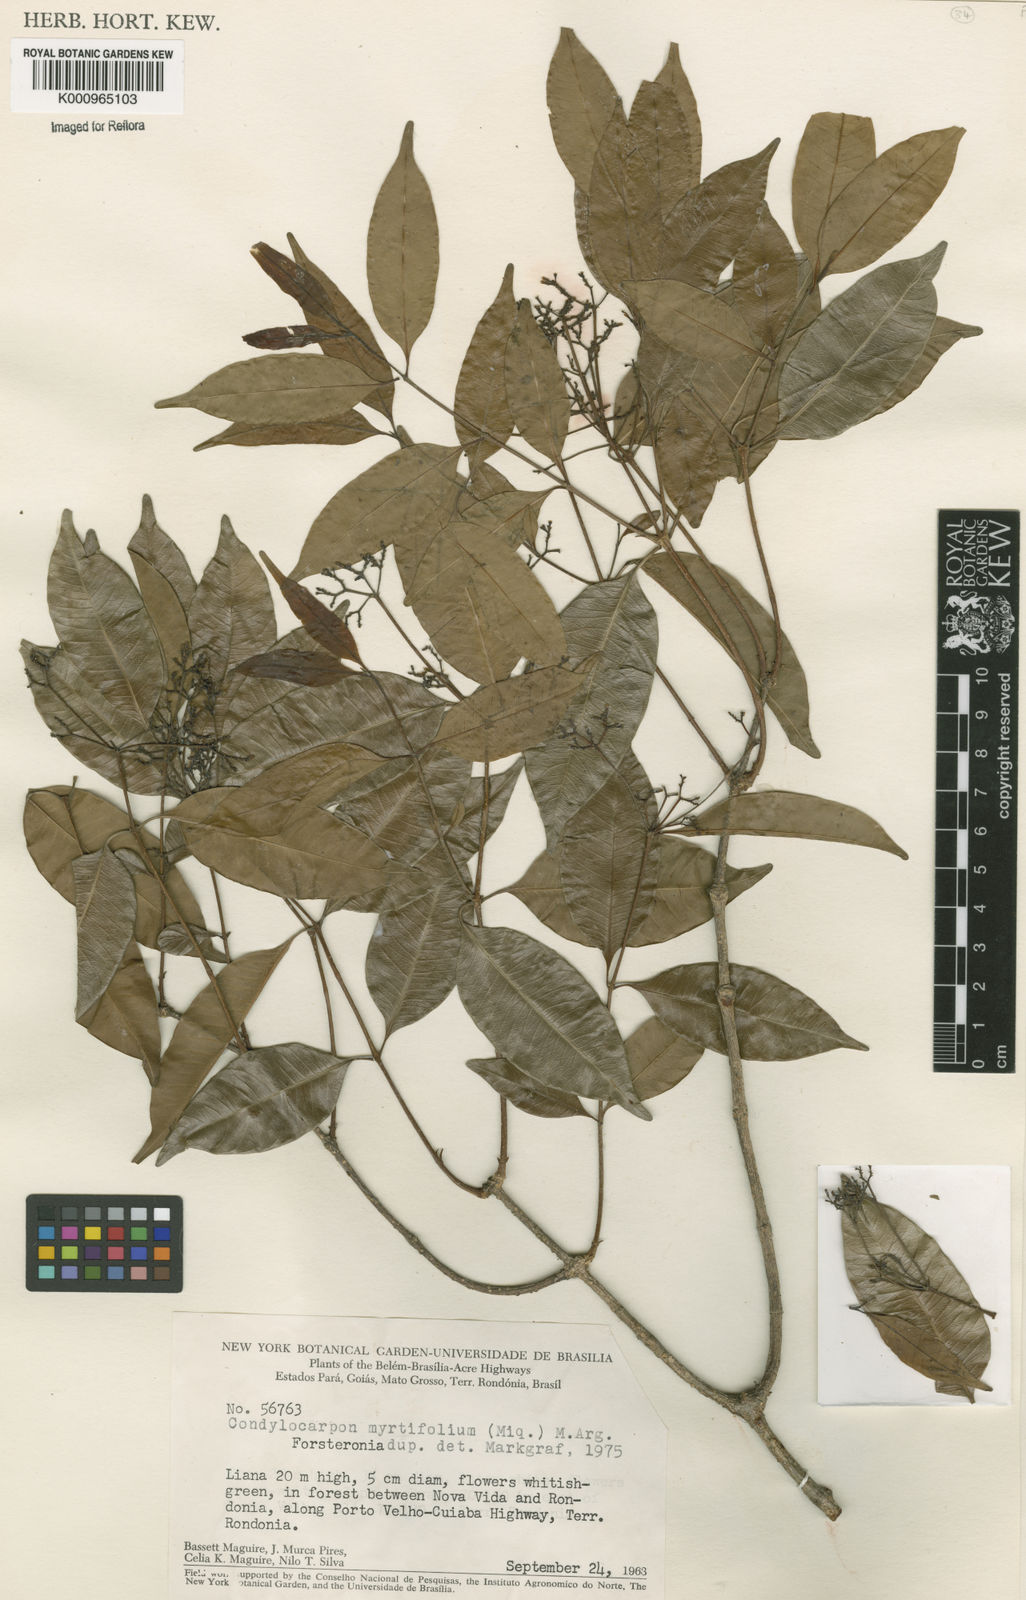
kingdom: Plantae
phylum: Tracheophyta
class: Magnoliopsida
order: Gentianales
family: Apocynaceae
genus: Condylocarpon
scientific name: Condylocarpon
